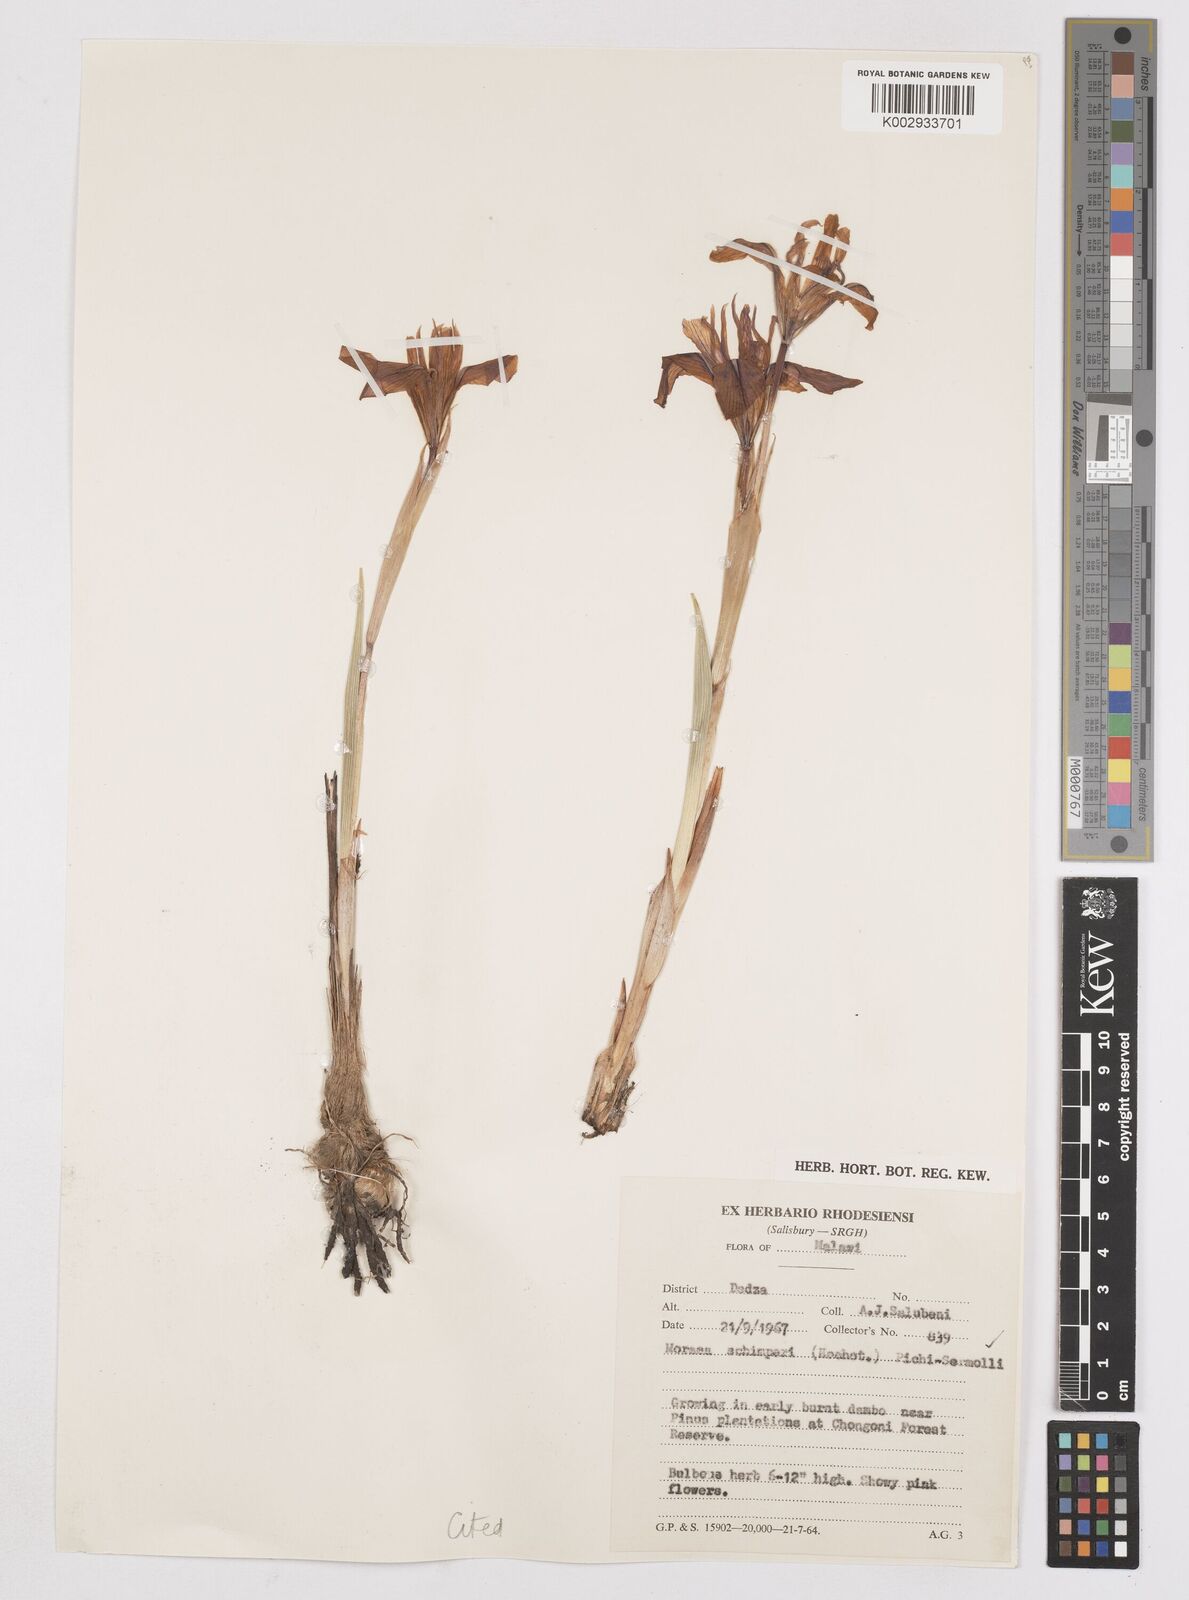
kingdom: Plantae
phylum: Tracheophyta
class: Liliopsida
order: Asparagales
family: Iridaceae
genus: Moraea
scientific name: Moraea schimperi
